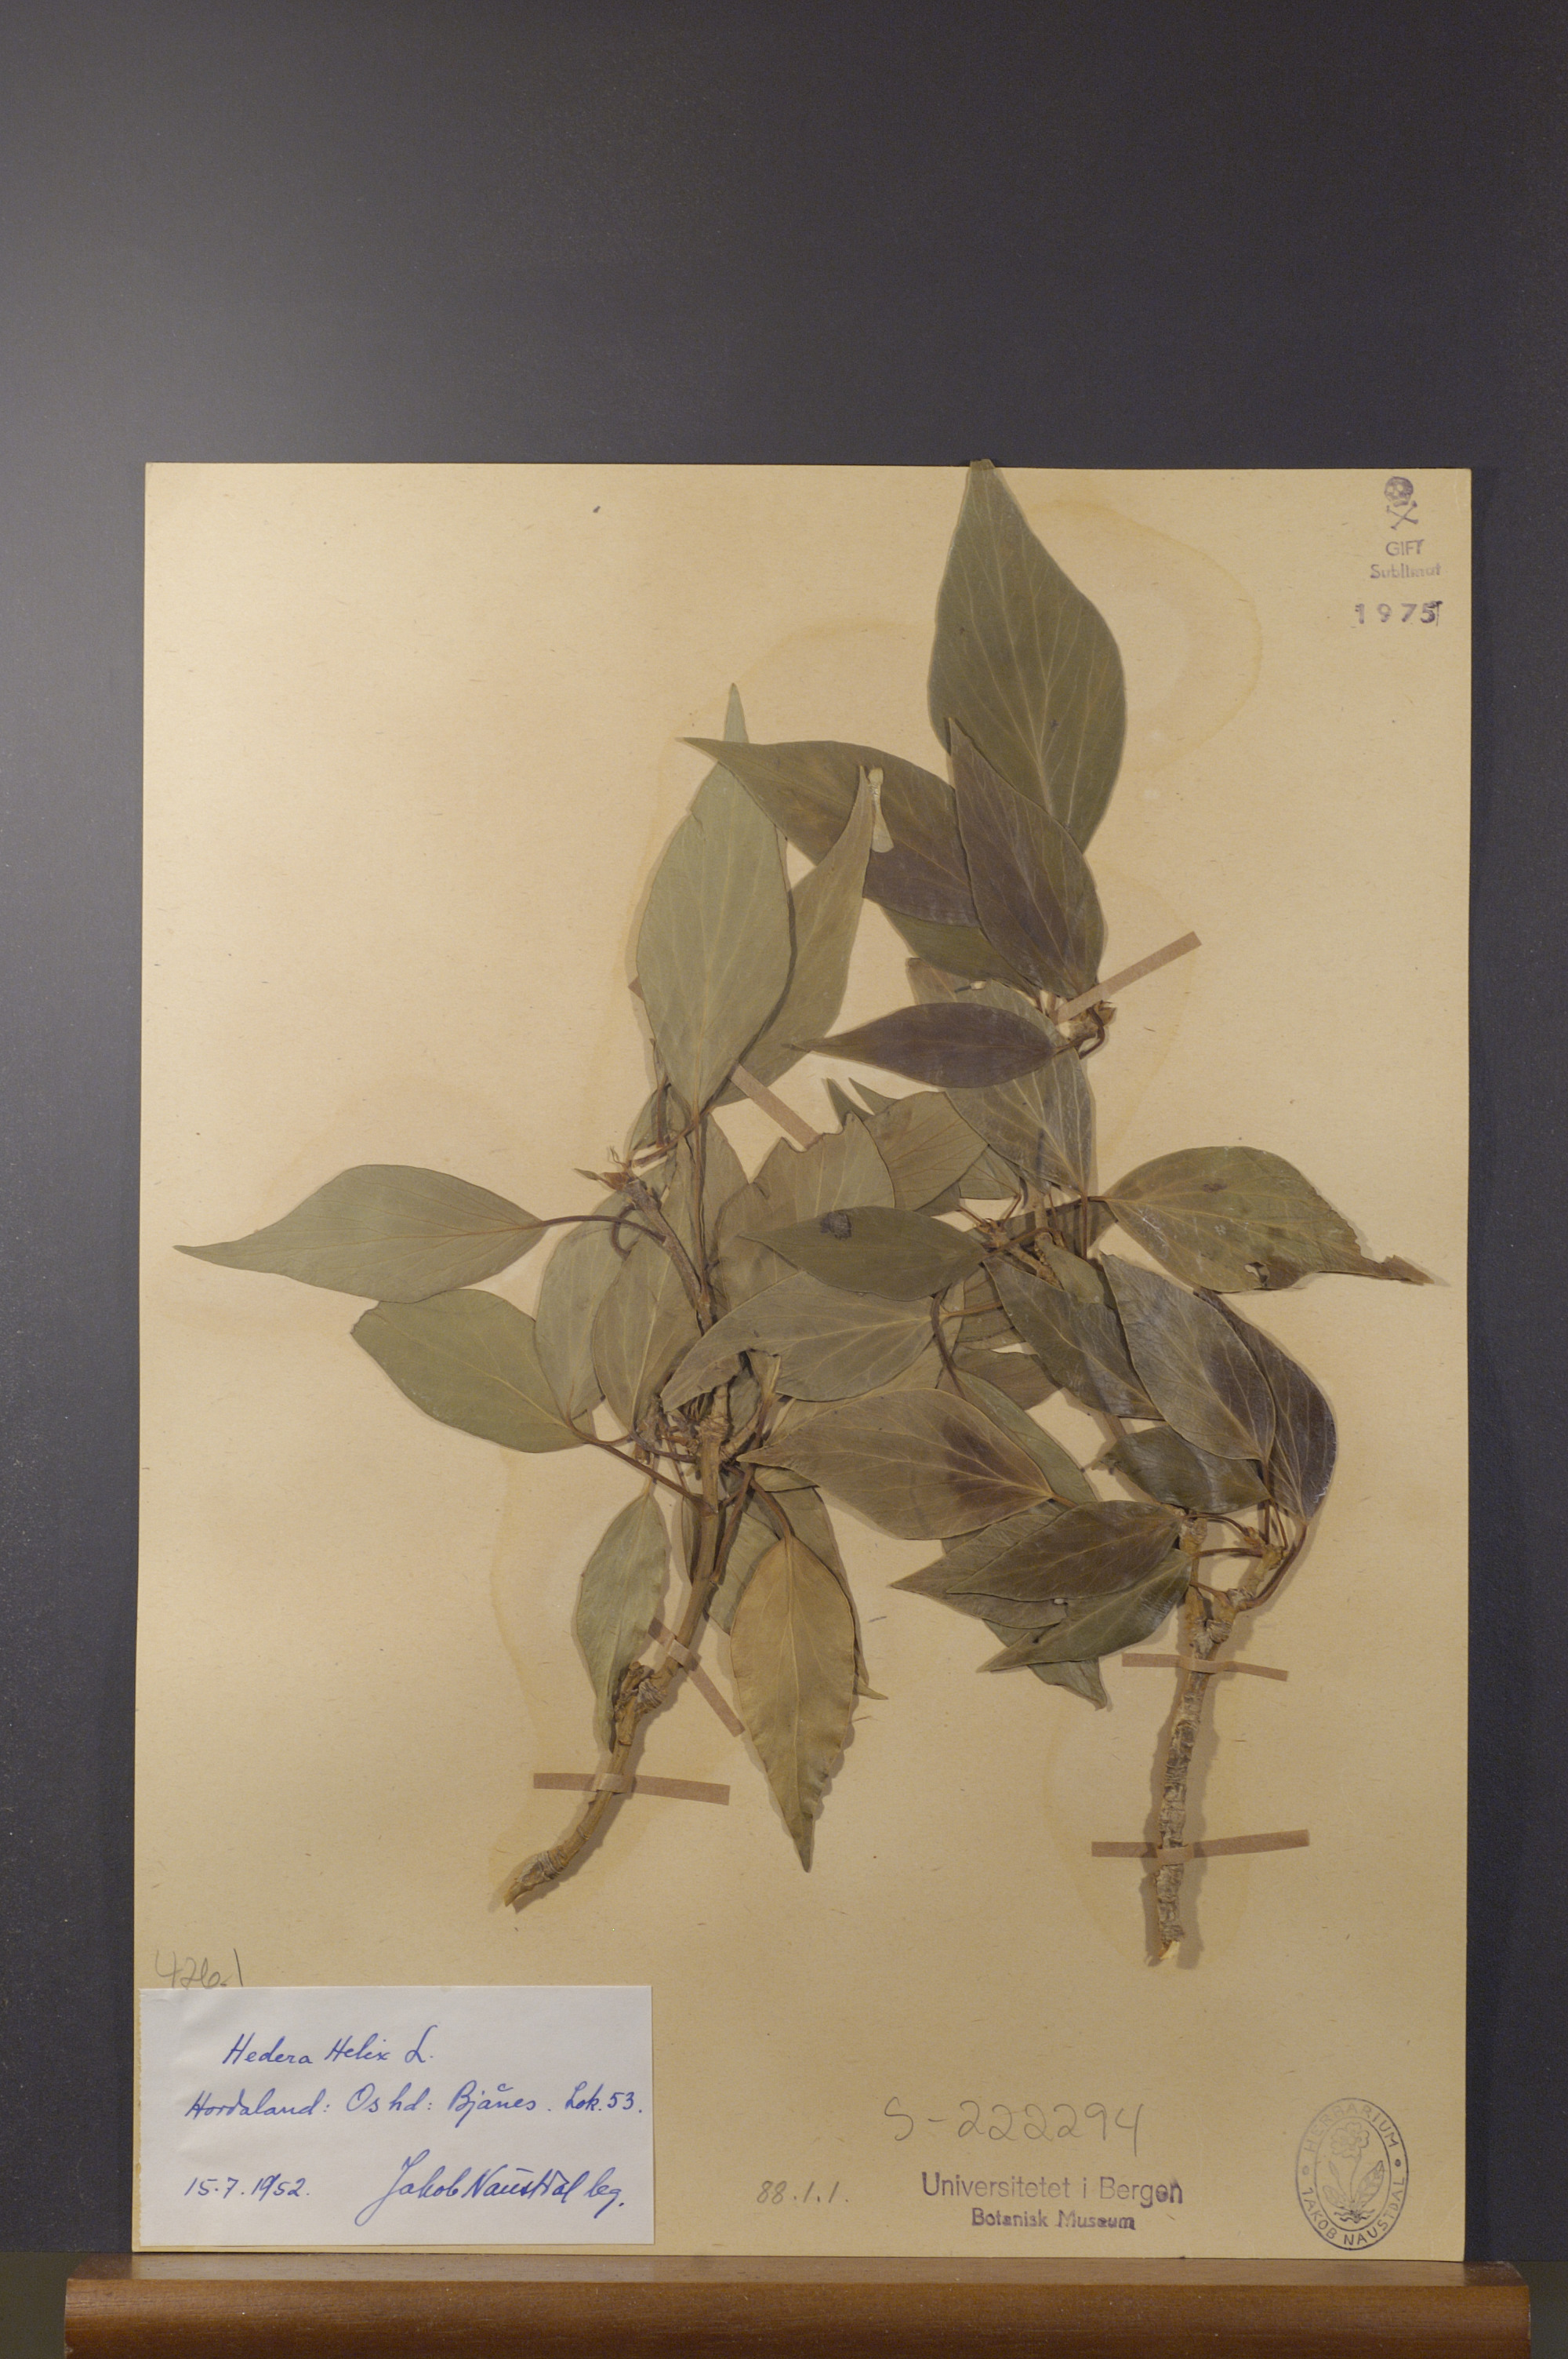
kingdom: Plantae
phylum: Tracheophyta
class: Magnoliopsida
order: Apiales
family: Araliaceae
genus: Hedera
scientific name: Hedera helix
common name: Ivy
